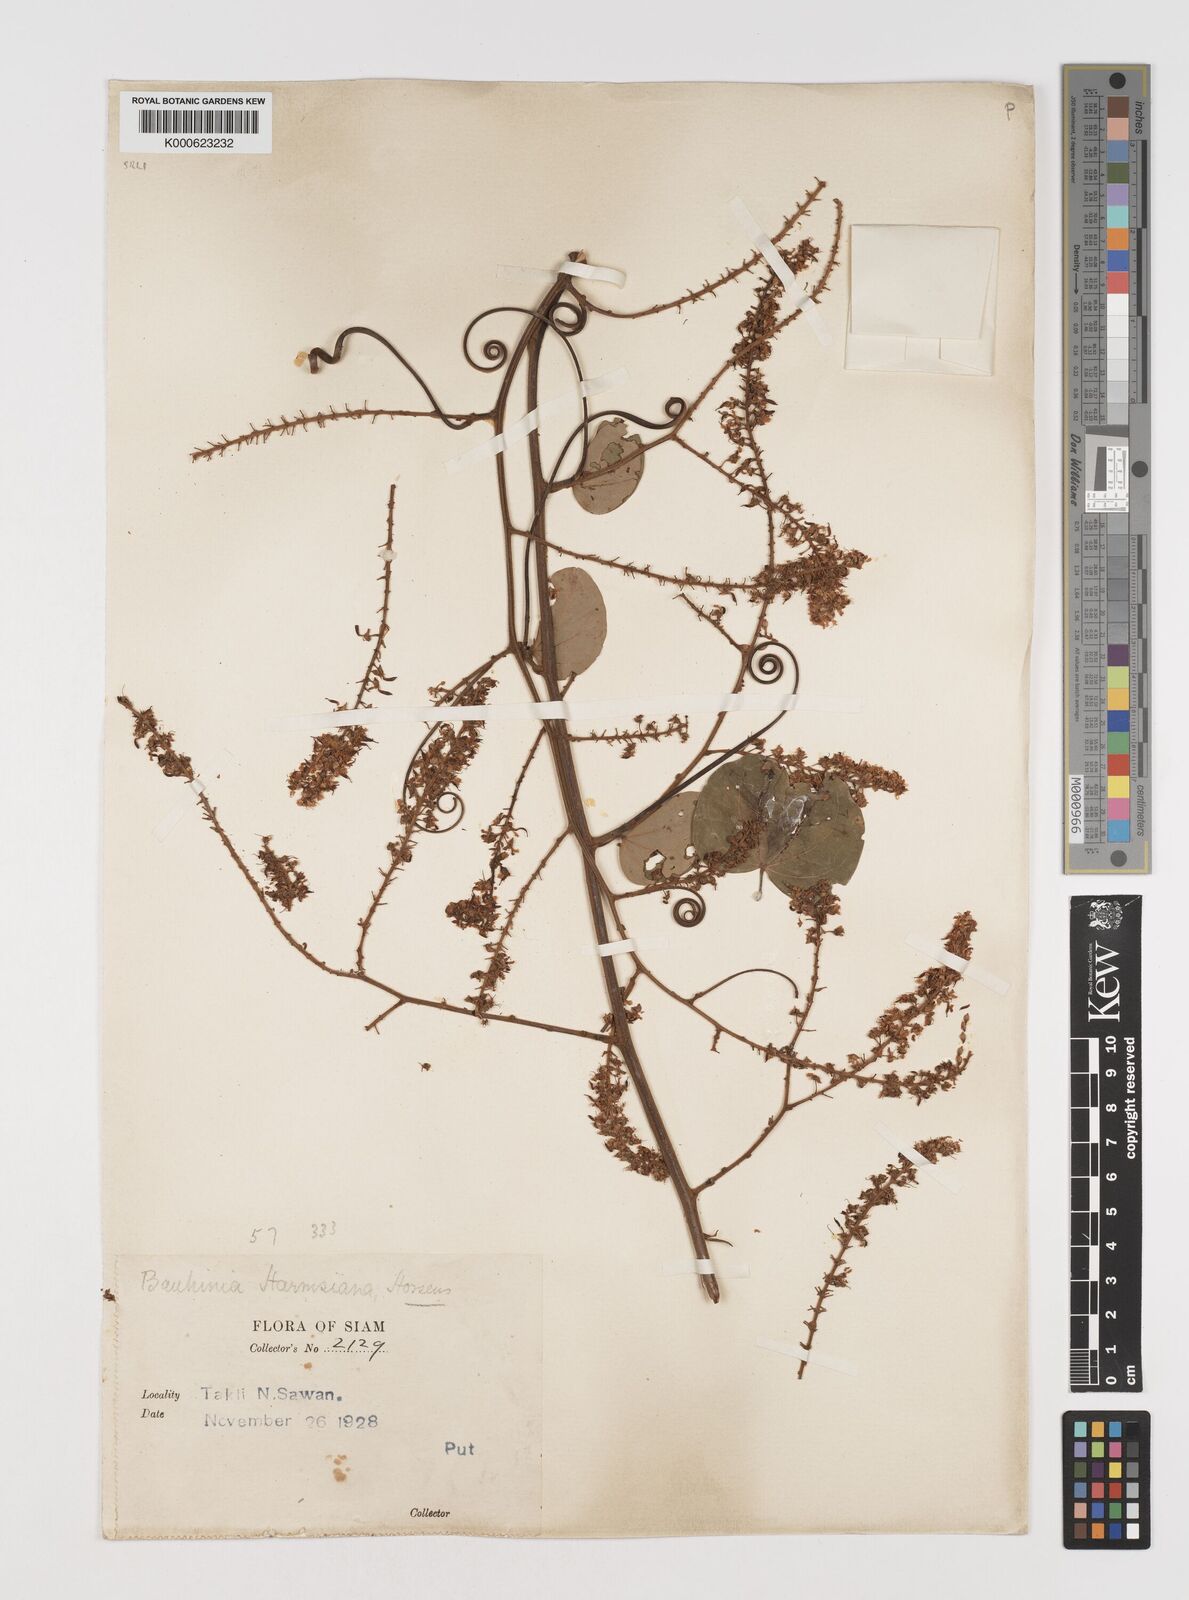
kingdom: Plantae
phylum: Tracheophyta
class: Magnoliopsida
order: Fabales
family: Fabaceae
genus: Phanera
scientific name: Phanera harmsiana
